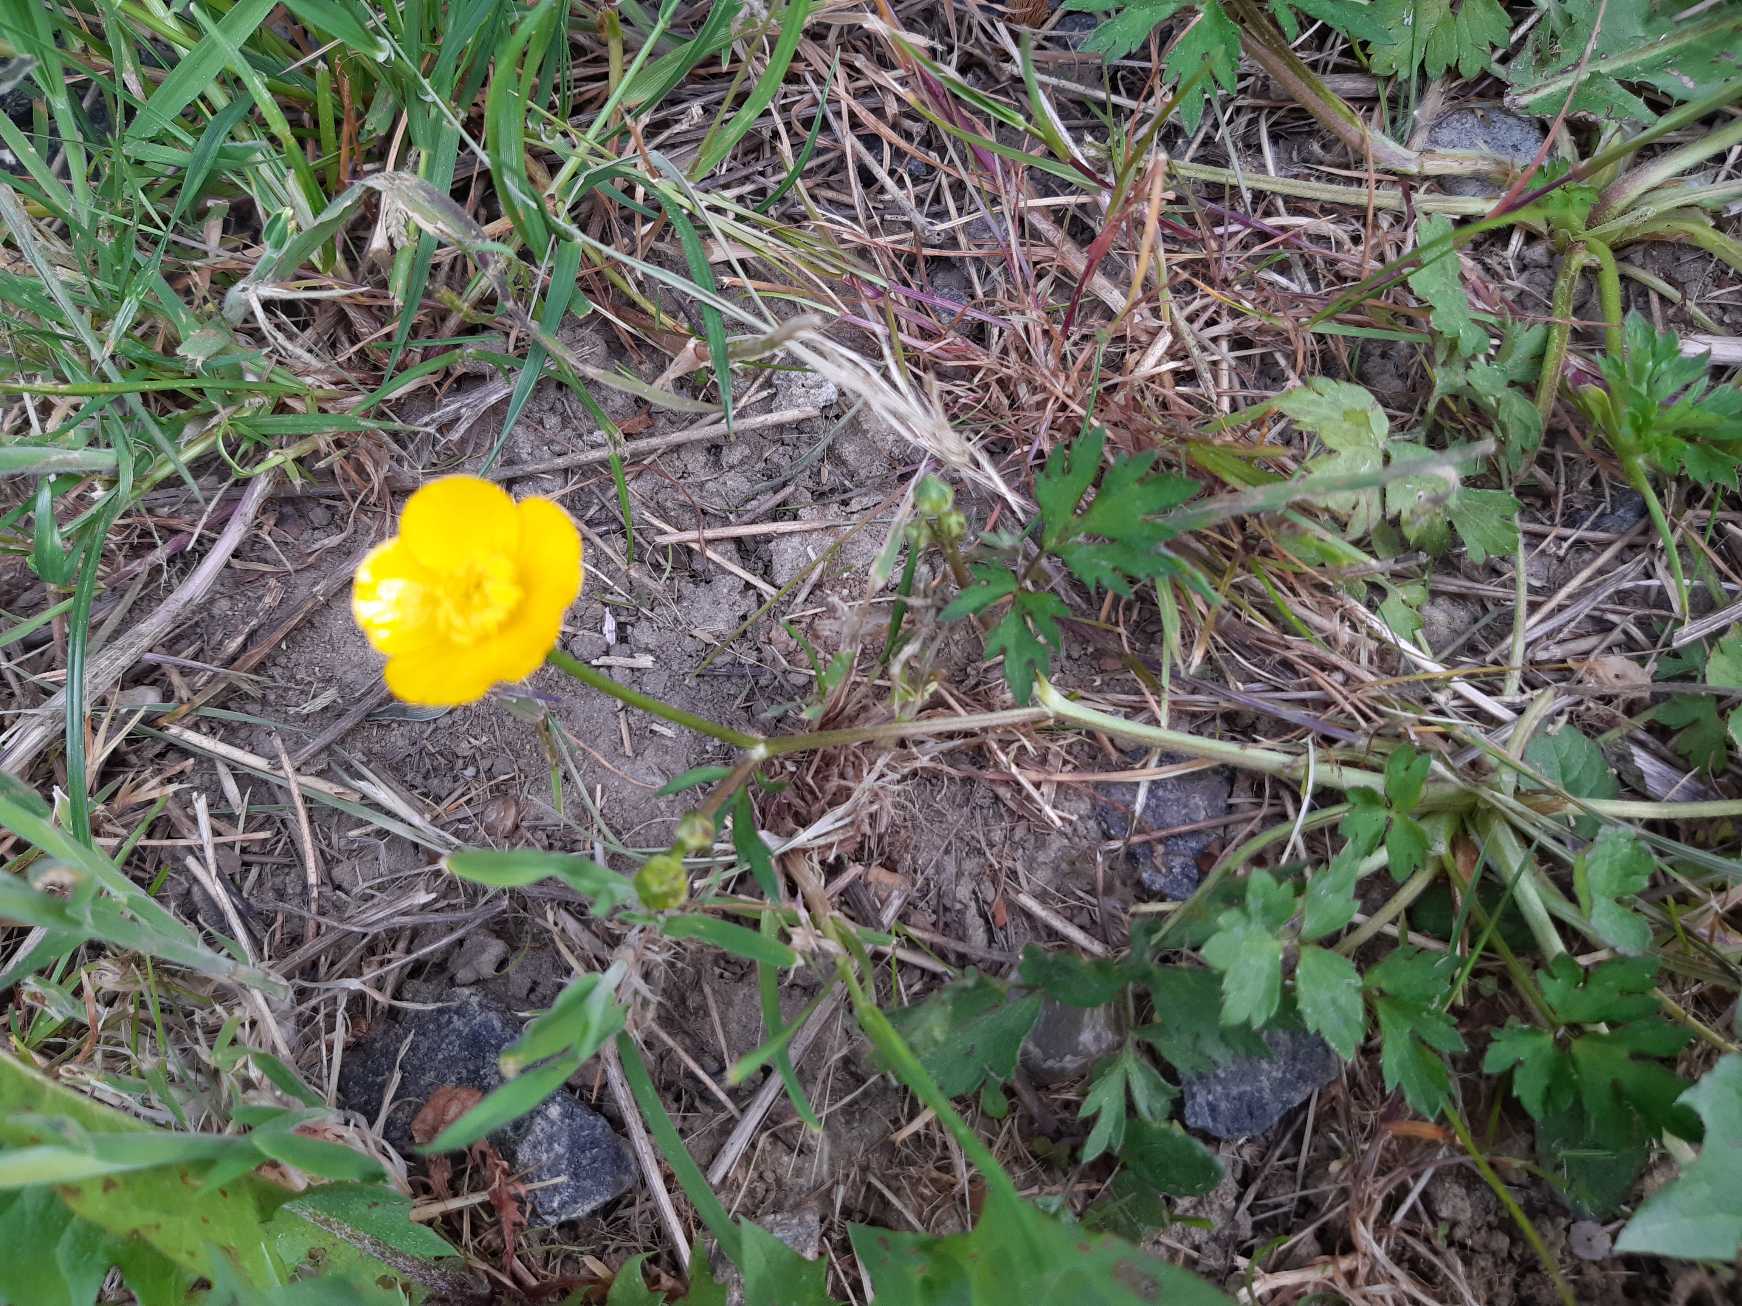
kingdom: Plantae
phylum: Tracheophyta
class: Magnoliopsida
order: Ranunculales
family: Ranunculaceae
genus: Ranunculus
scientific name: Ranunculus repens
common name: Lav ranunkel
